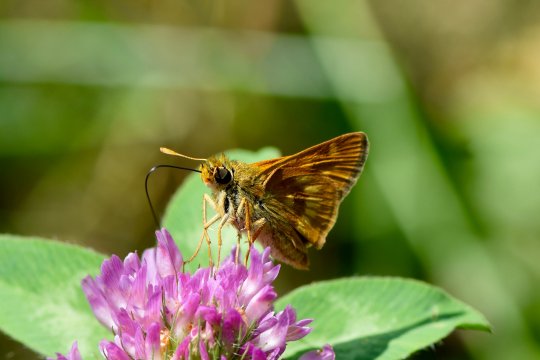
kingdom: Animalia
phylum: Arthropoda
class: Insecta
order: Lepidoptera
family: Hesperiidae
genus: Polites
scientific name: Polites
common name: Long Dash Skipper
